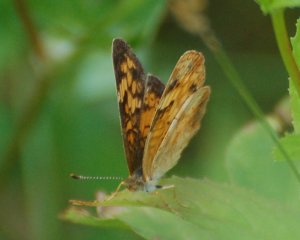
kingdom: Animalia
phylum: Arthropoda
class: Insecta
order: Lepidoptera
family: Nymphalidae
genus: Phyciodes
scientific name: Phyciodes tharos
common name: Northern Crescent
